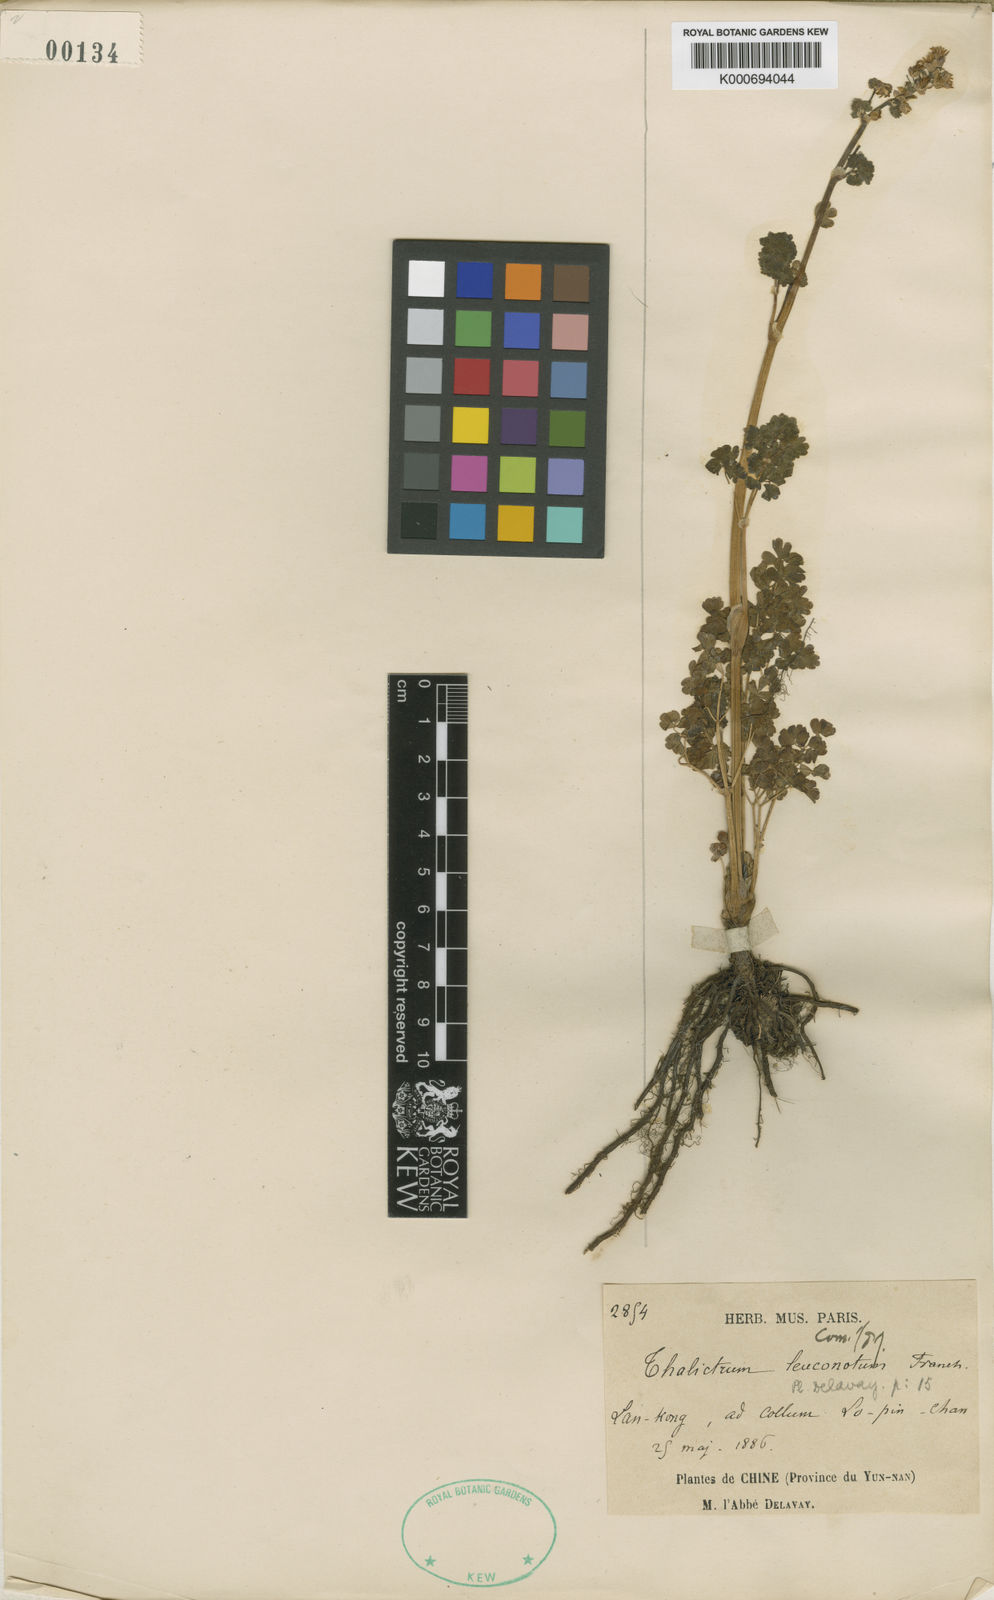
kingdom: Plantae
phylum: Tracheophyta
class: Magnoliopsida
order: Ranunculales
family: Ranunculaceae
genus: Thalictrum
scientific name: Thalictrum leuconotum
